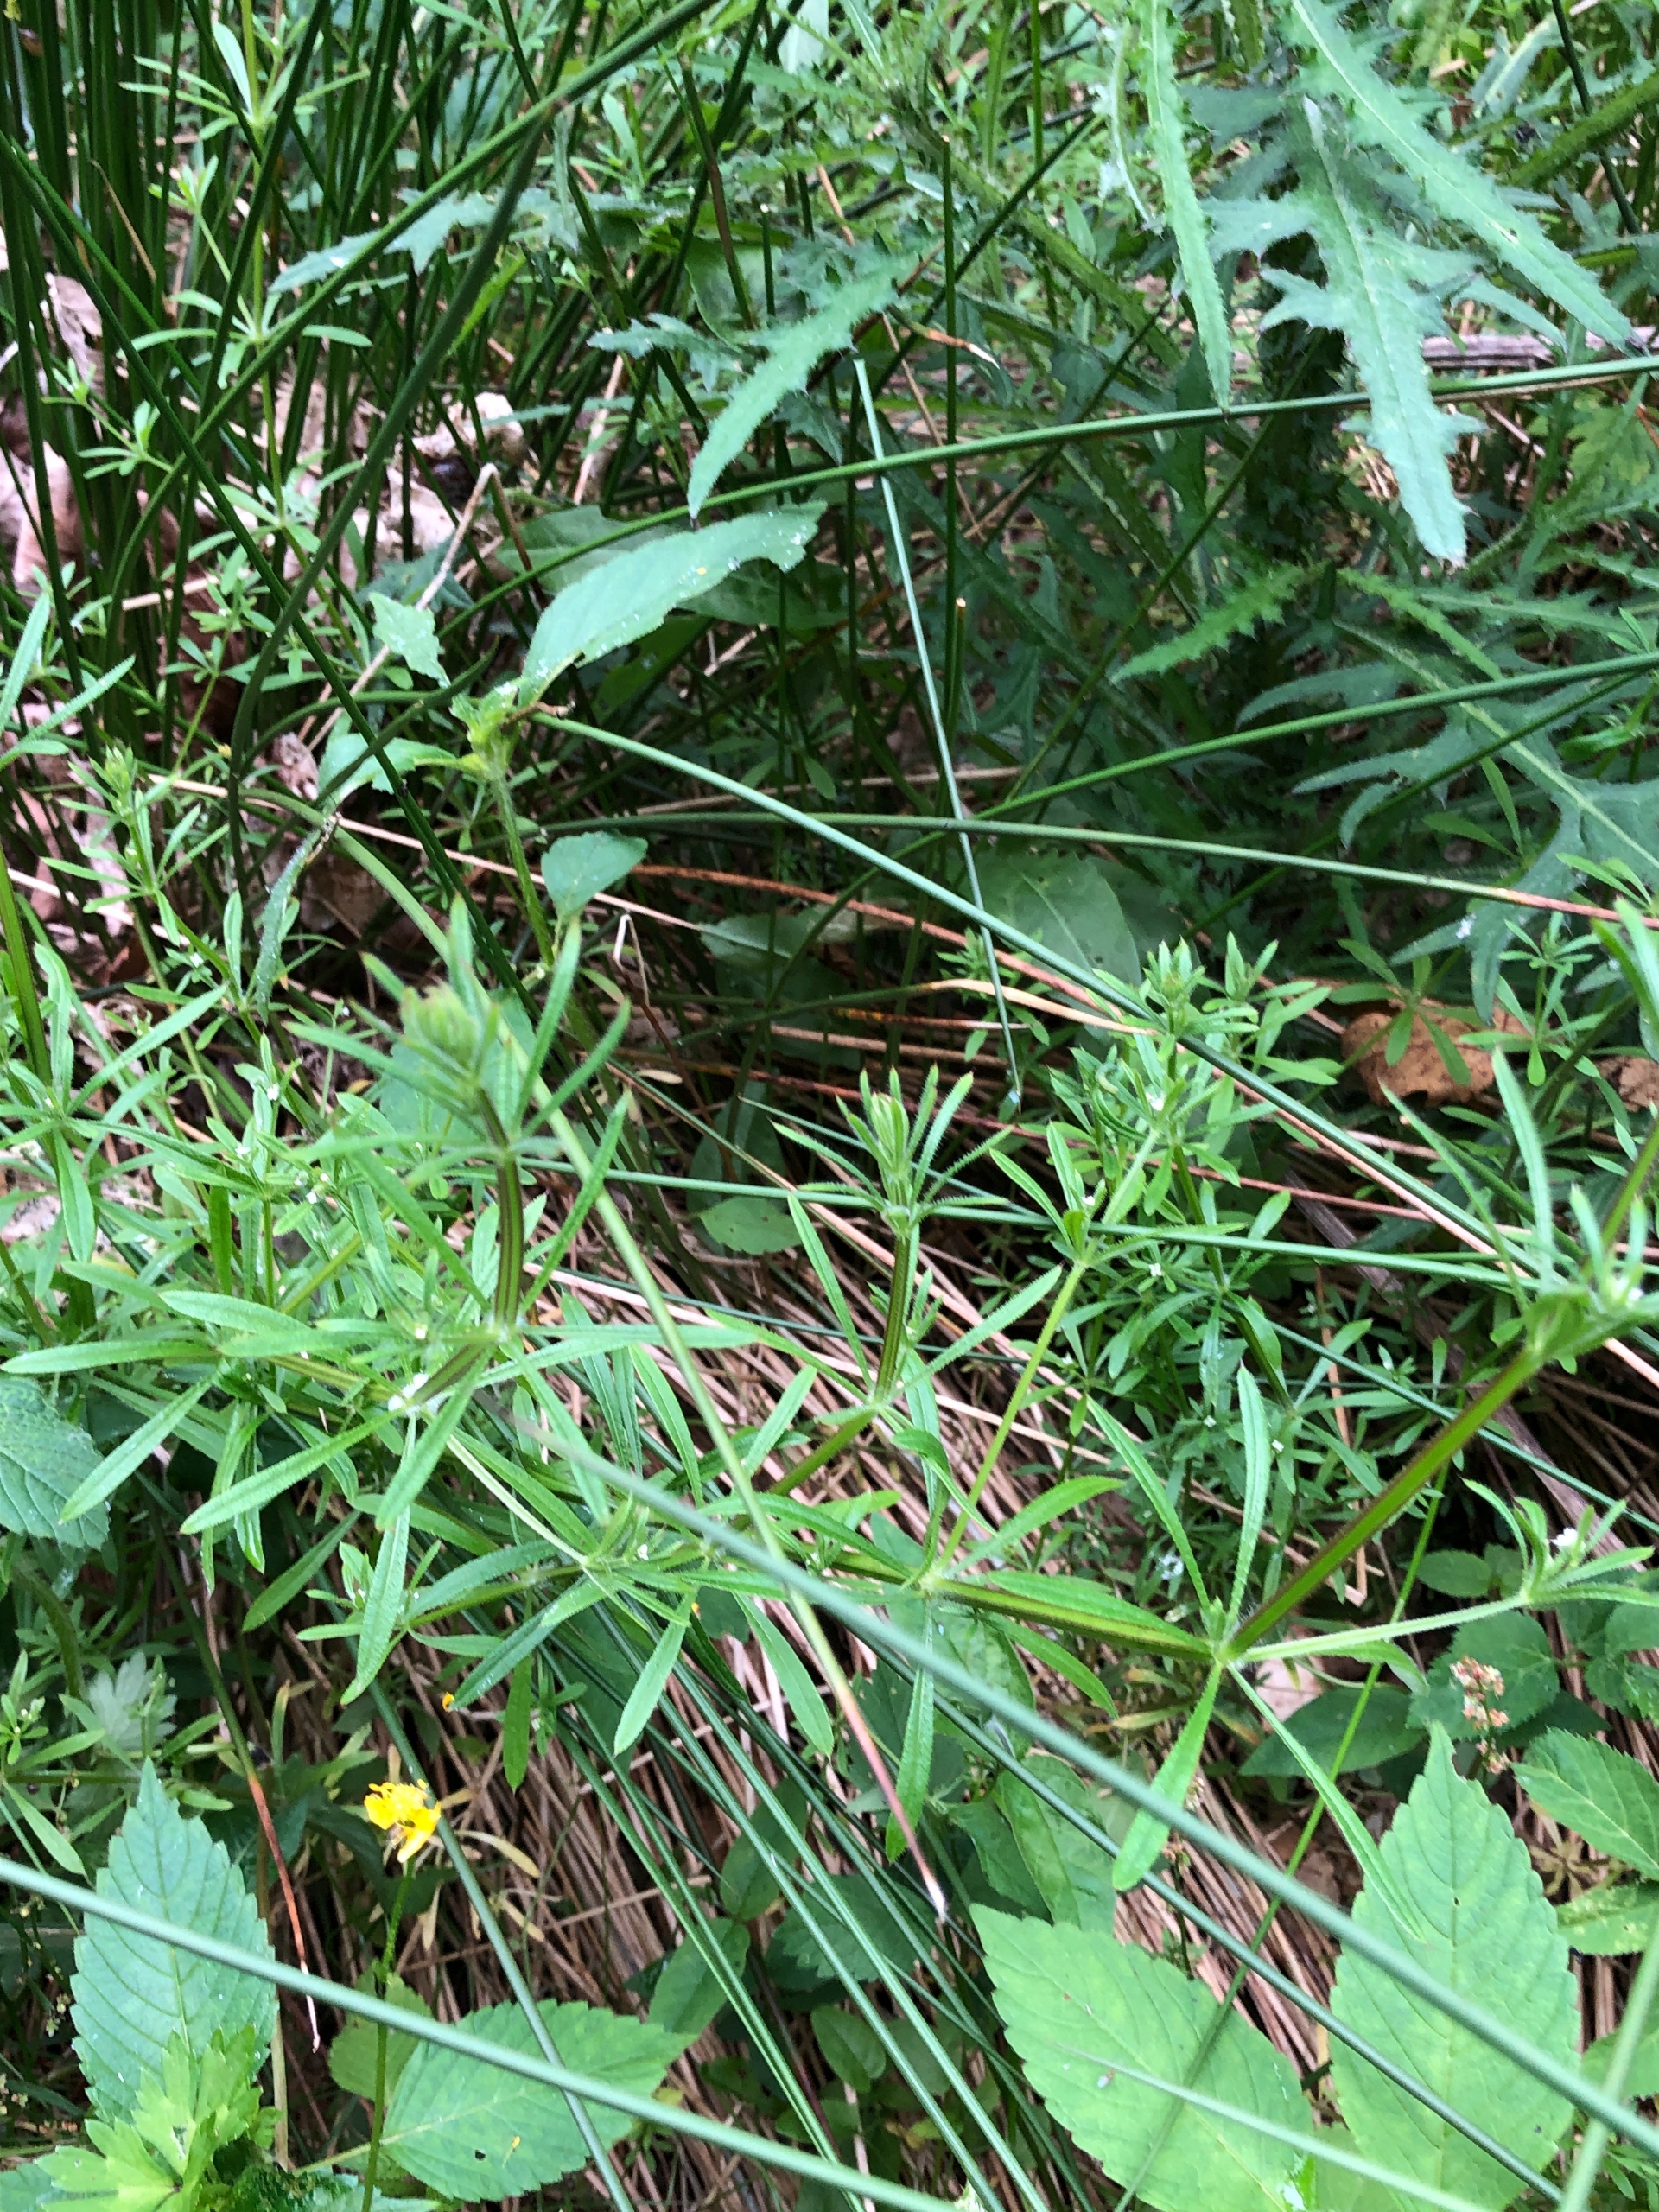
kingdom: Plantae
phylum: Tracheophyta
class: Magnoliopsida
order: Gentianales
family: Rubiaceae
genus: Galium
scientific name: Galium aparine
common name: Burre-snerre
